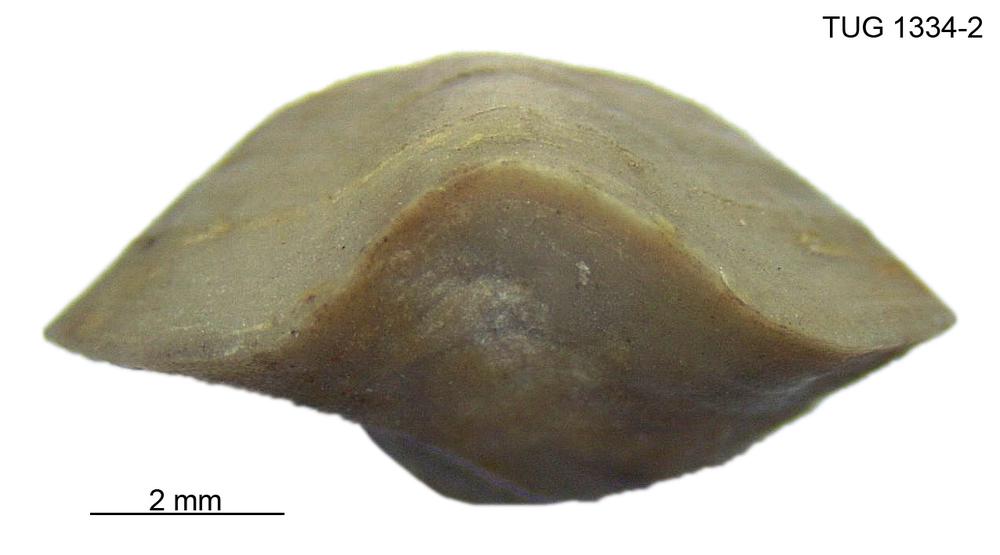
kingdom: Animalia
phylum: Brachiopoda
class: Rhynchonellata
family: Triplesiidae
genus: Onychoplecia
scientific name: Onychoplecia schmidti
